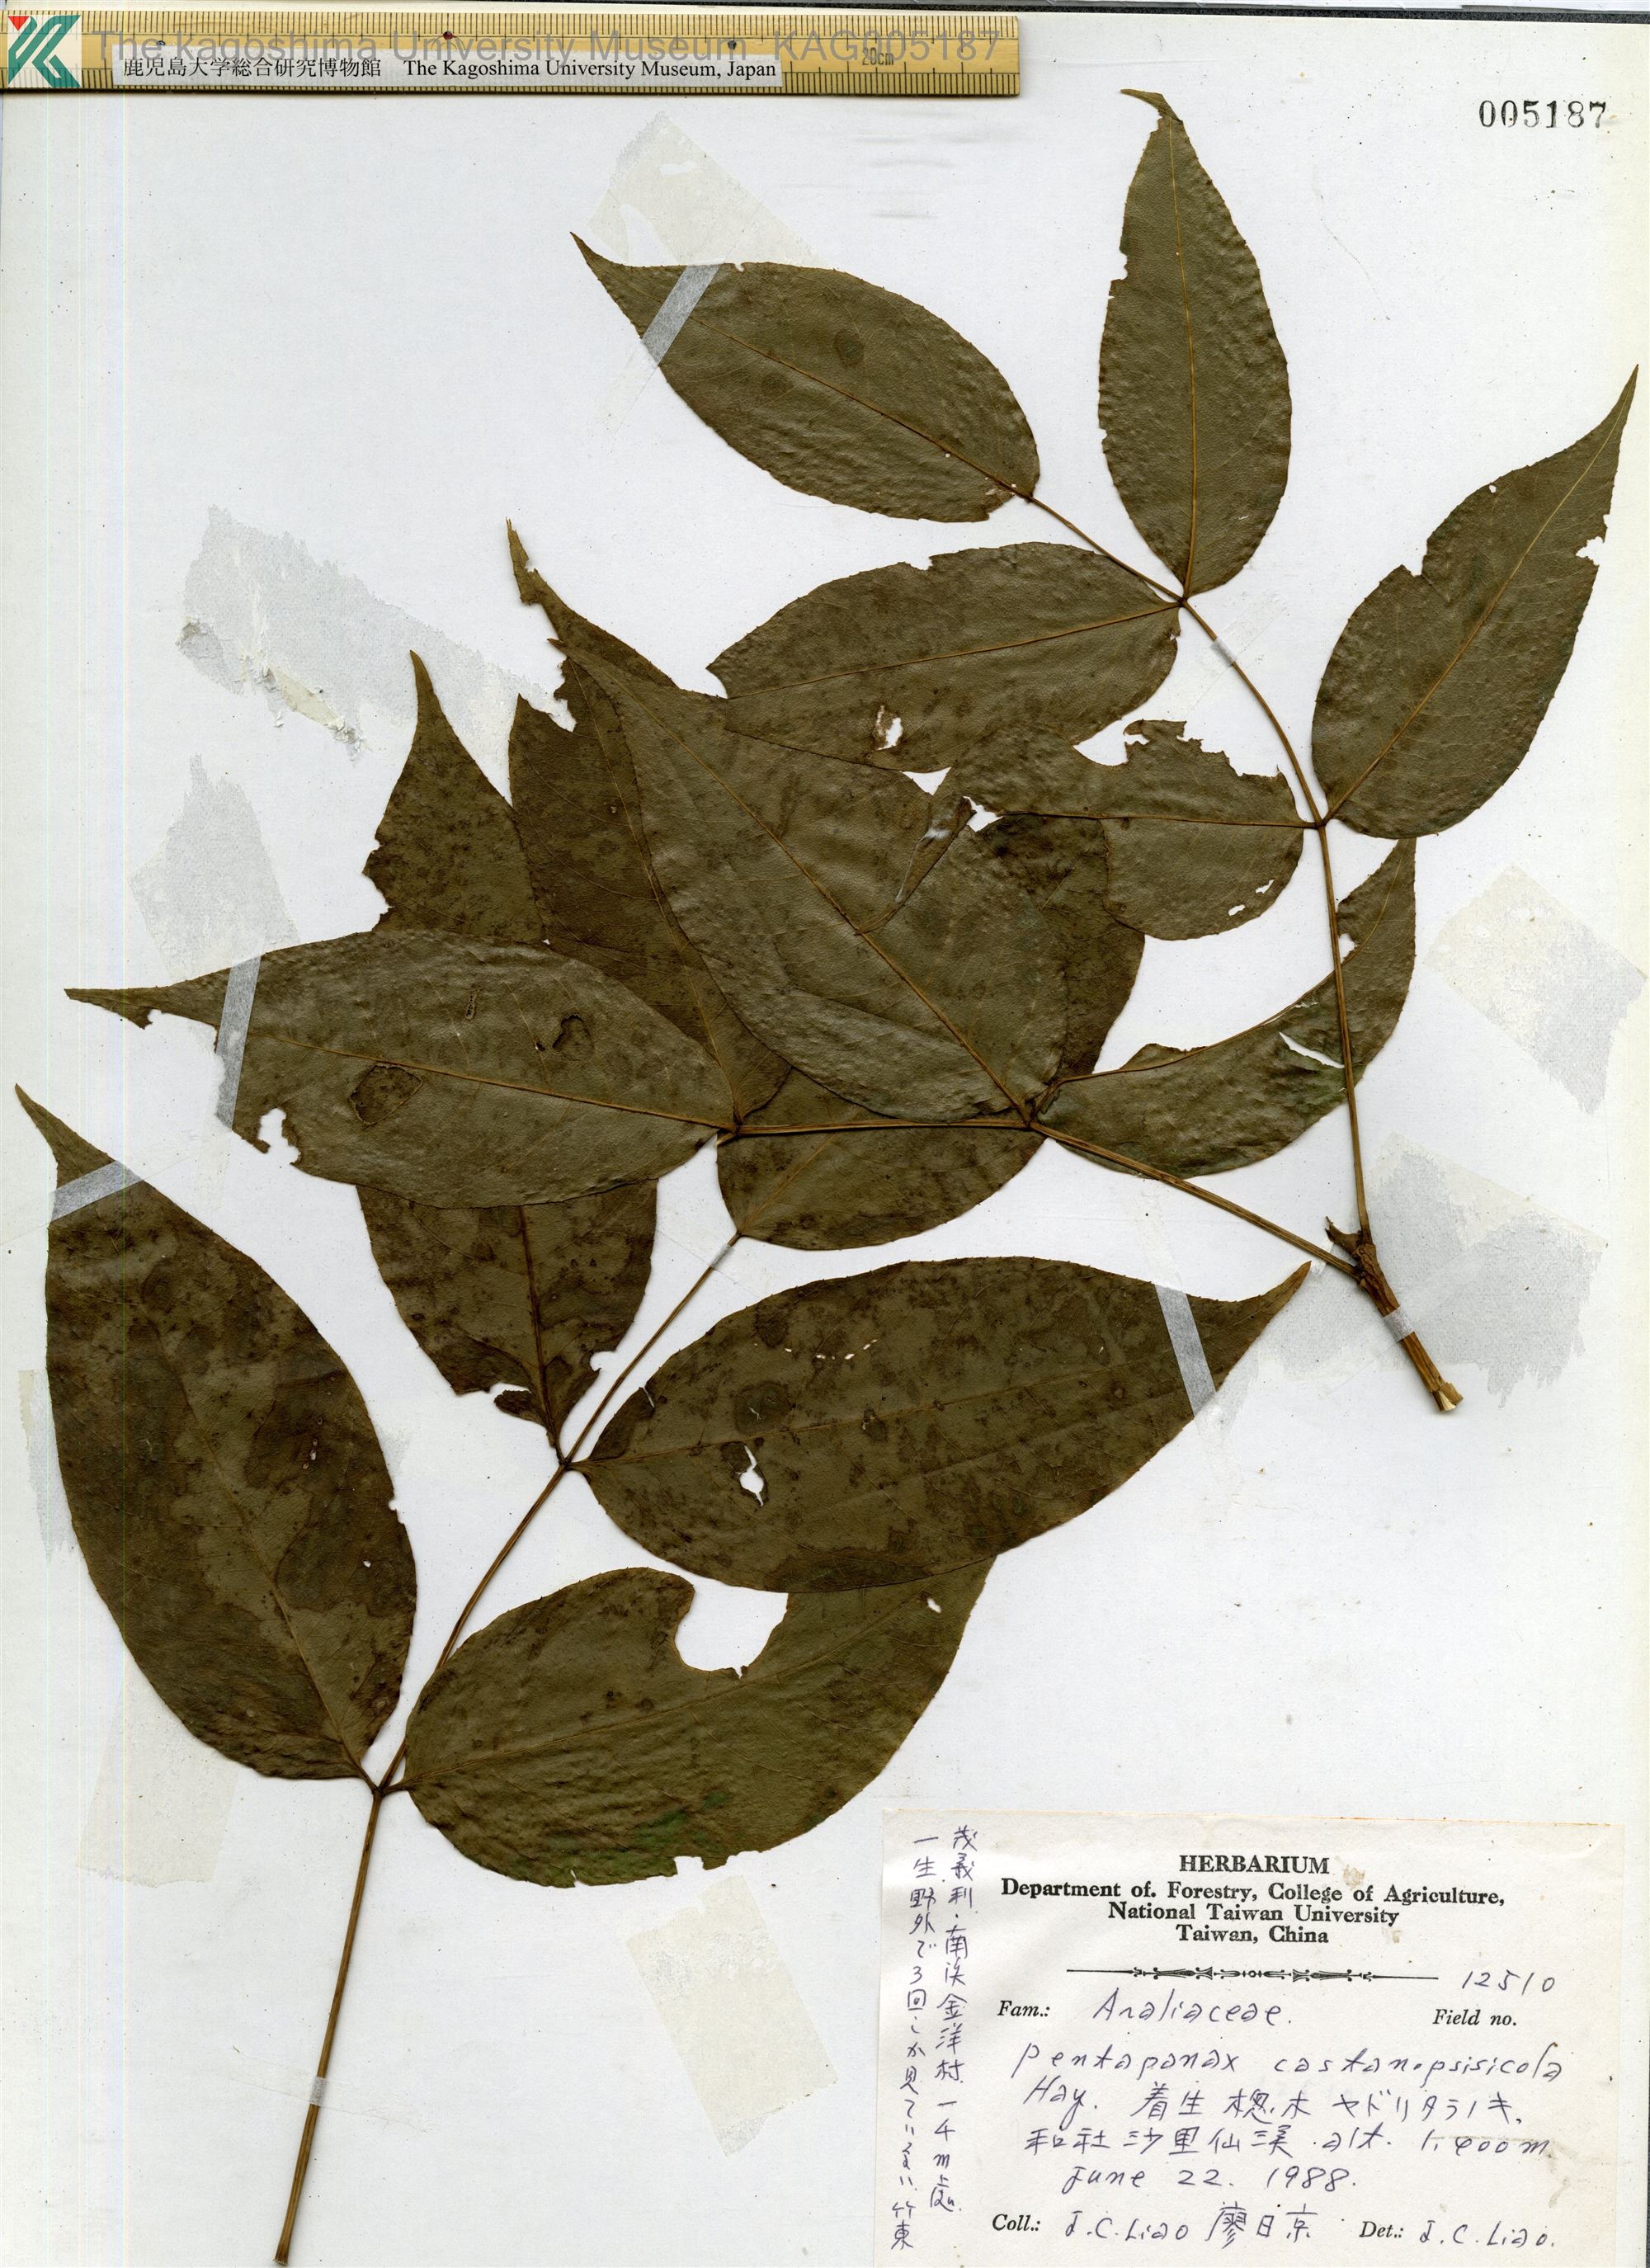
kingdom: Plantae
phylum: Tracheophyta
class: Magnoliopsida
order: Apiales
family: Araliaceae
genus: Aralia
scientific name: Aralia castanopsiscola
